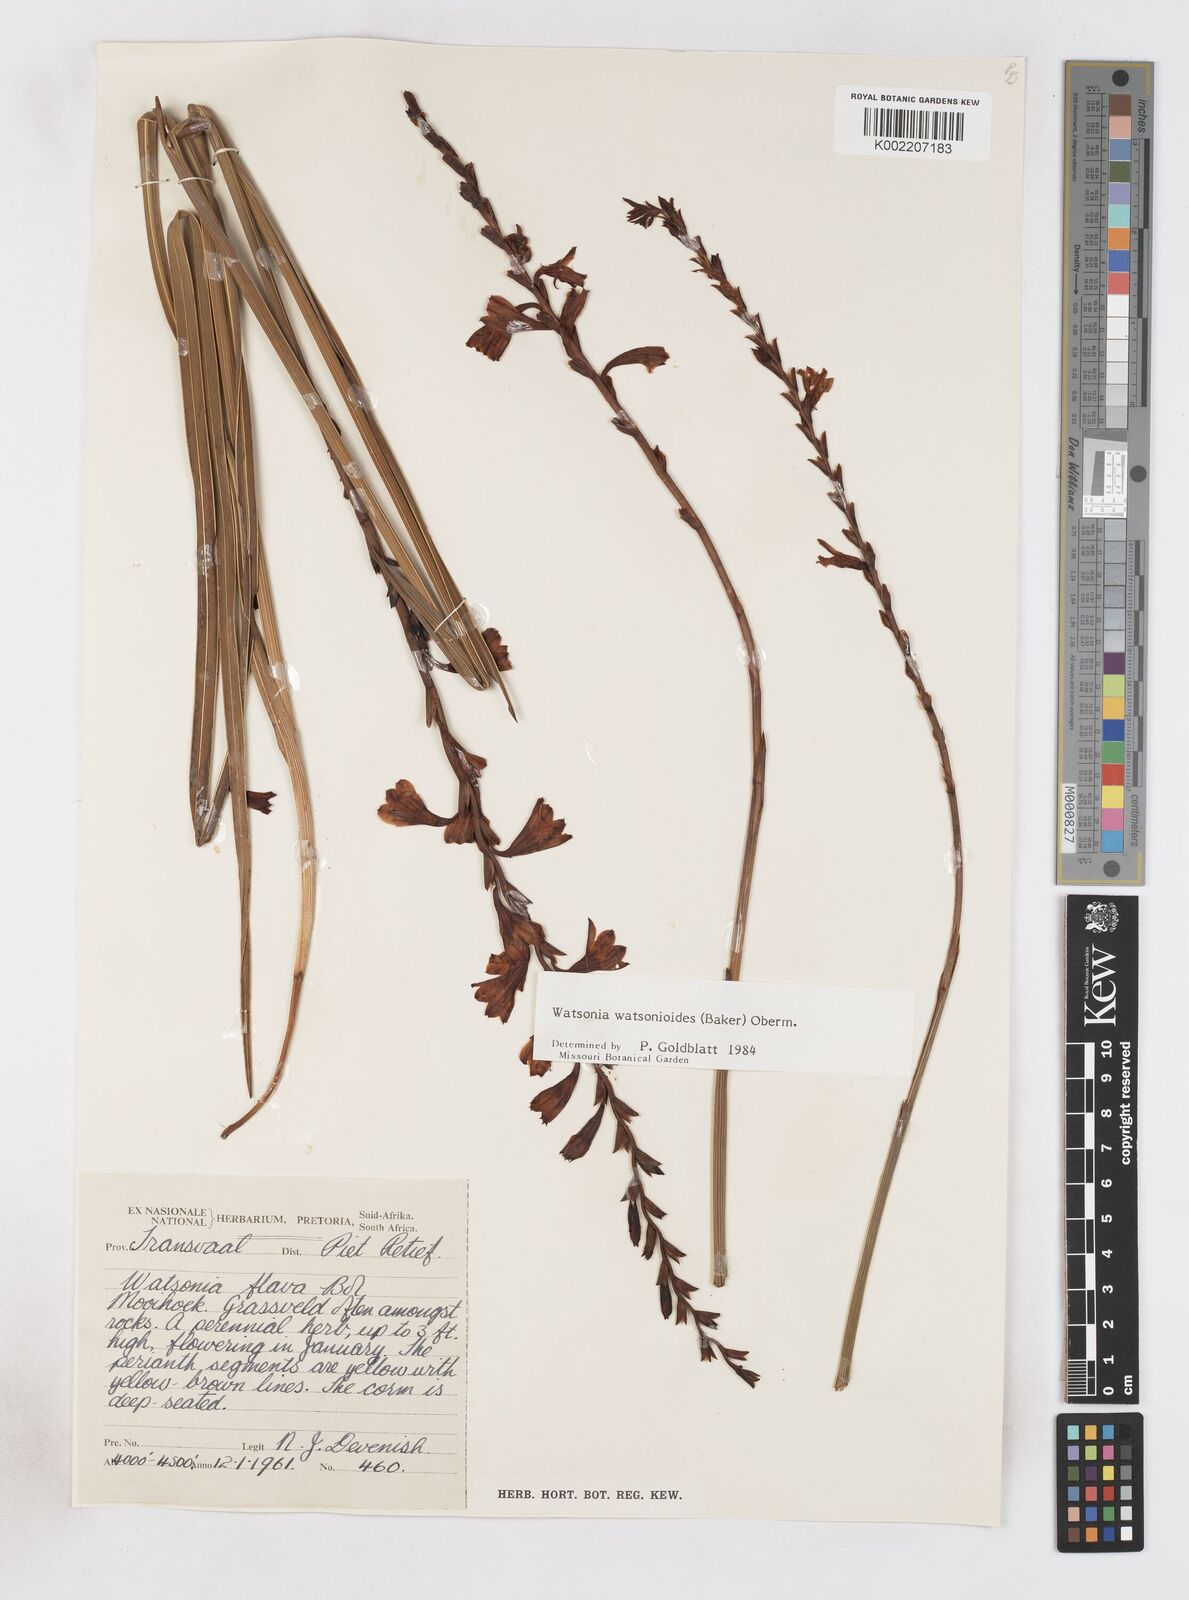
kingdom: Plantae
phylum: Tracheophyta
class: Liliopsida
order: Asparagales
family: Iridaceae
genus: Watsonia
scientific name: Watsonia watsonioides
